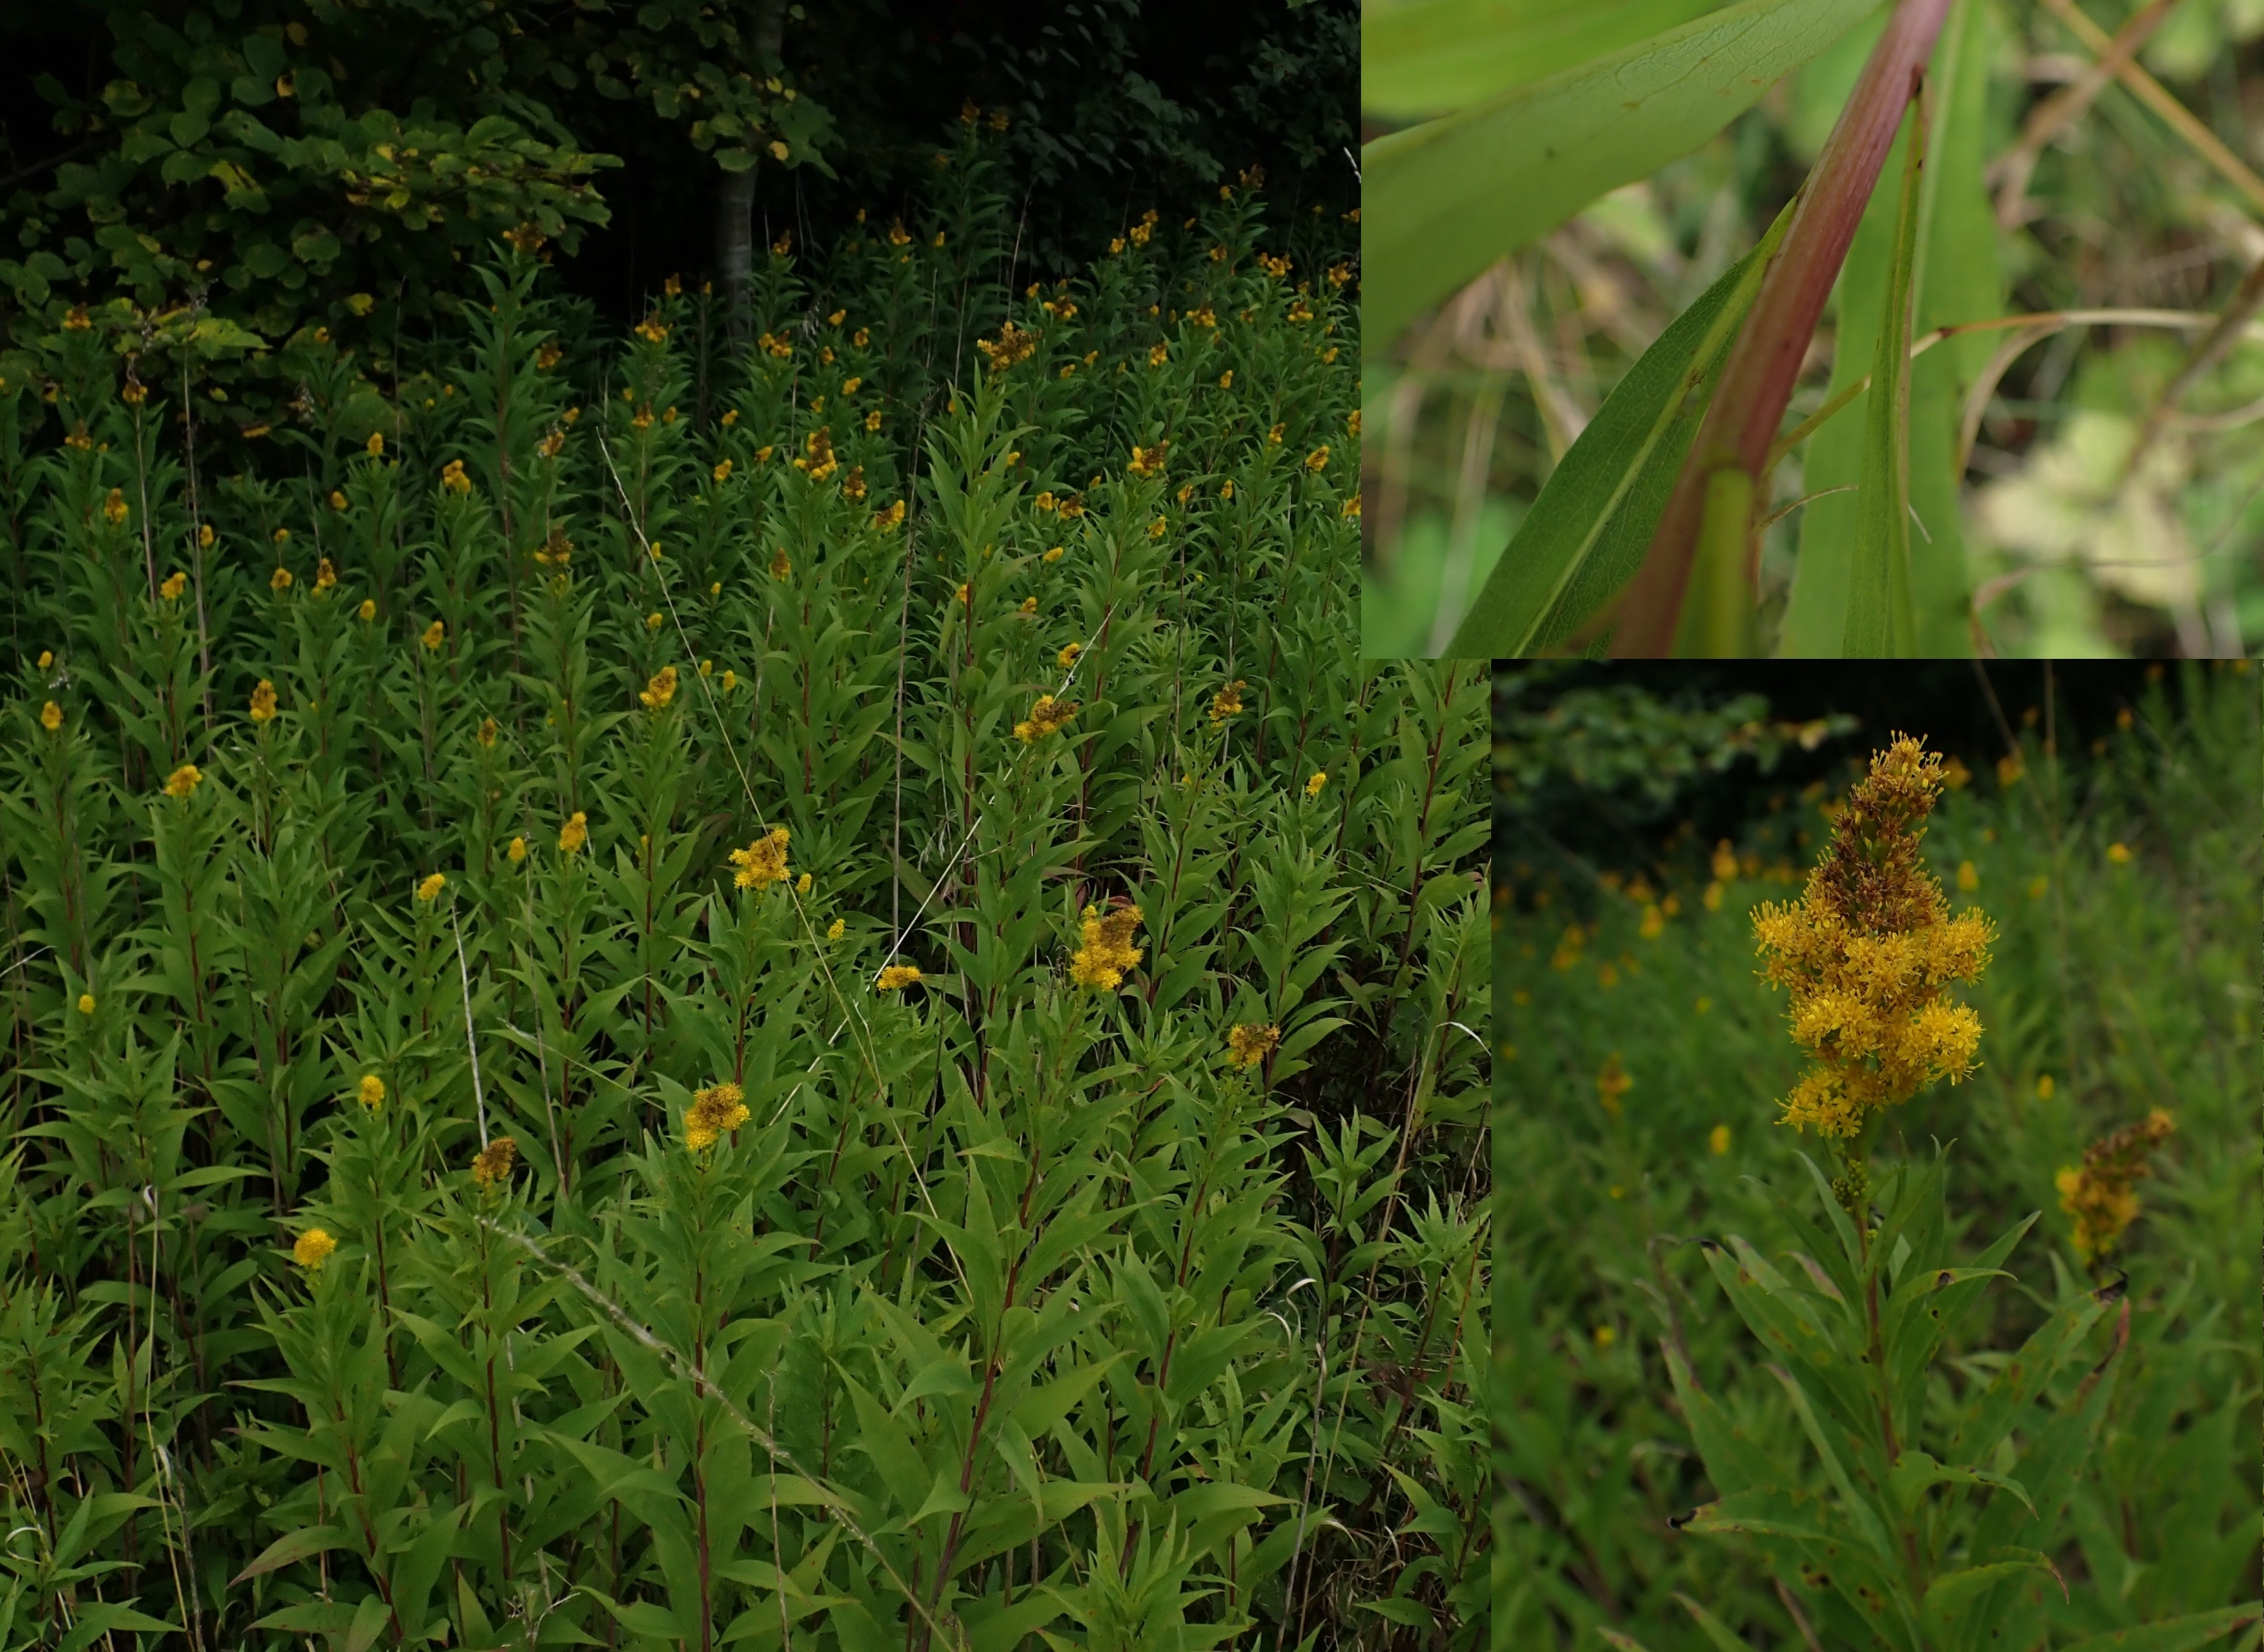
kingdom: Plantae
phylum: Tracheophyta
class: Magnoliopsida
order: Asterales
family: Asteraceae
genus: Solidago
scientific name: Solidago gigantea
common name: Sildig gyldenris
